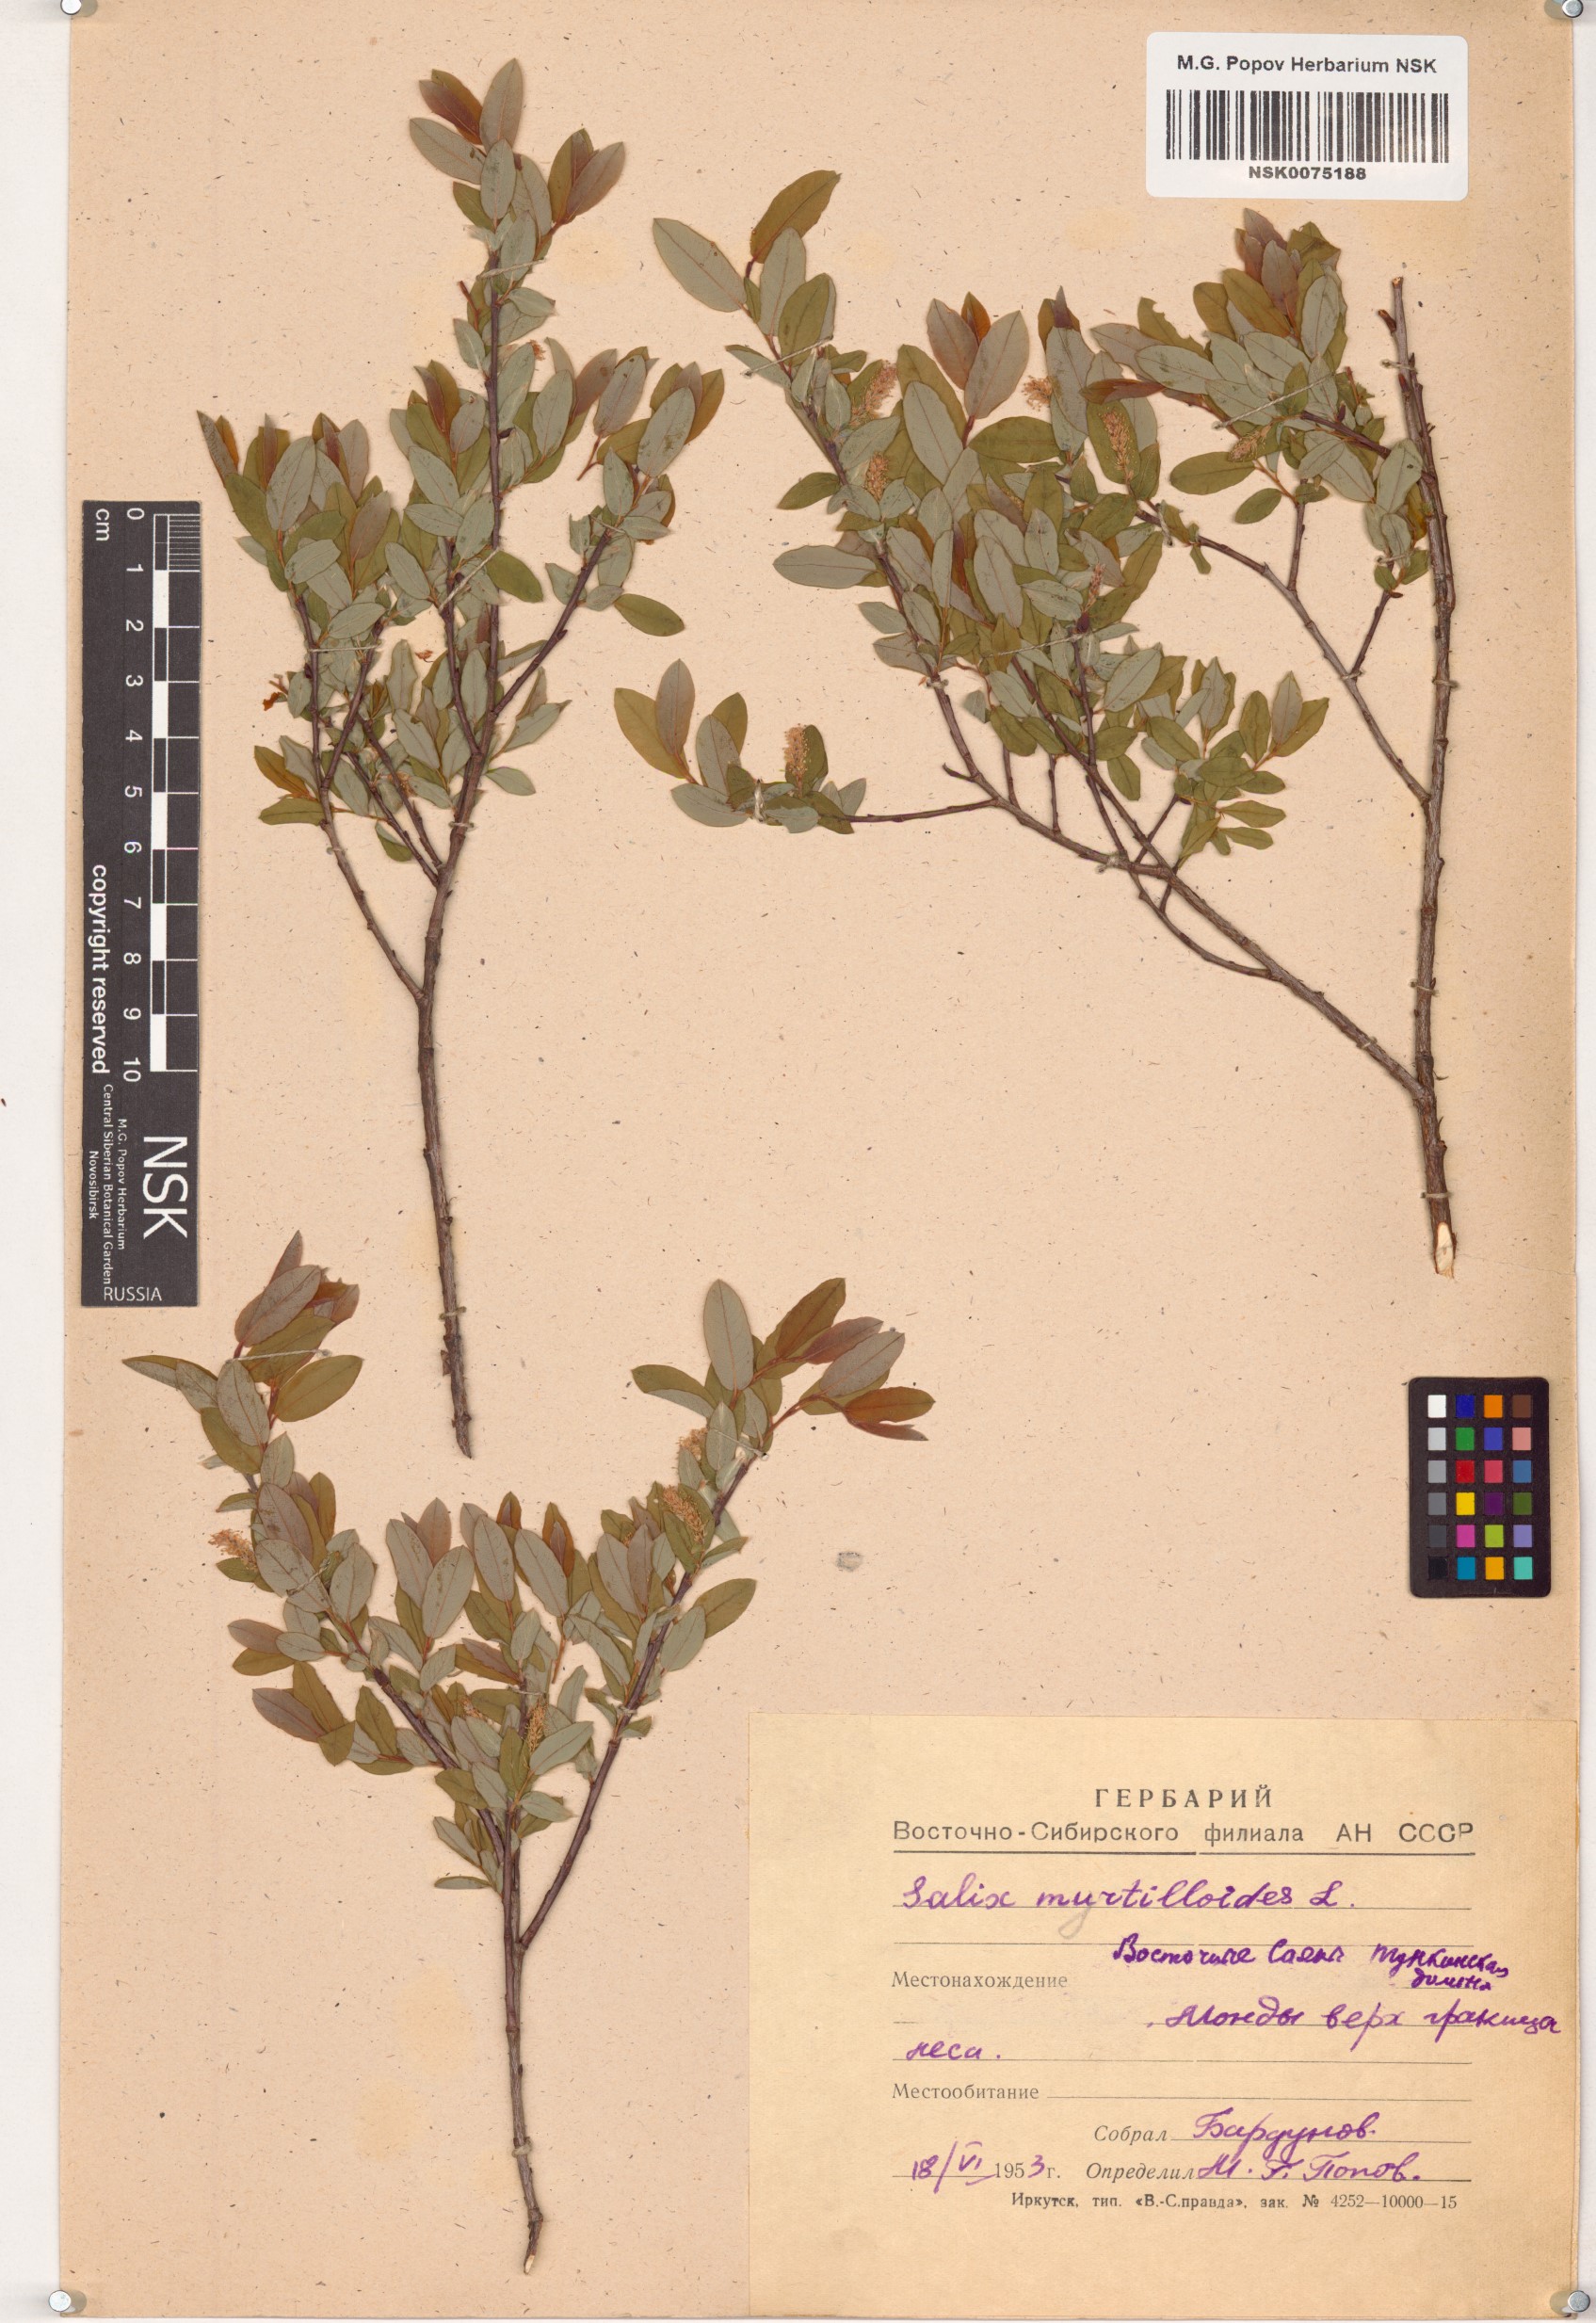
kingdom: Plantae
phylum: Tracheophyta
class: Magnoliopsida
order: Malpighiales
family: Salicaceae
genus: Salix
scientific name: Salix myrtilloides
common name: Myrtle-leaved willow
